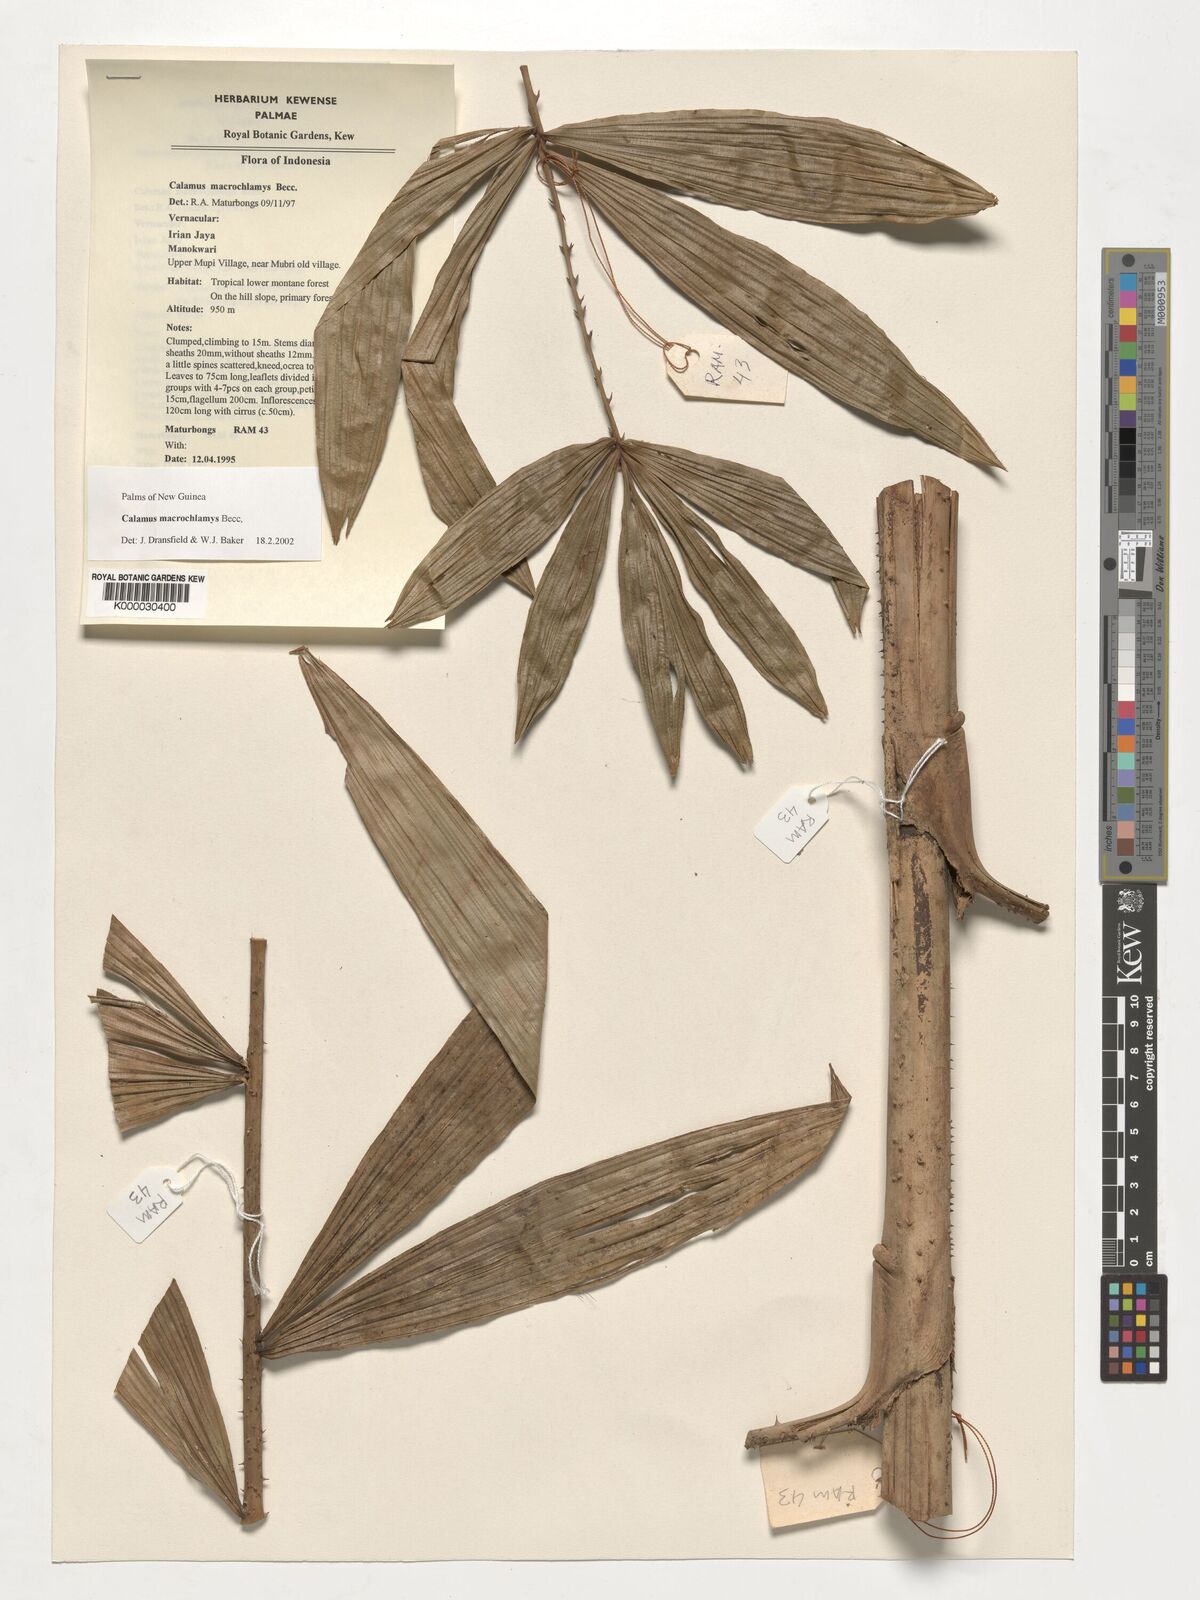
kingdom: Plantae
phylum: Tracheophyta
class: Liliopsida
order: Arecales
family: Arecaceae
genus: Calamus
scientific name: Calamus macrochlamys
